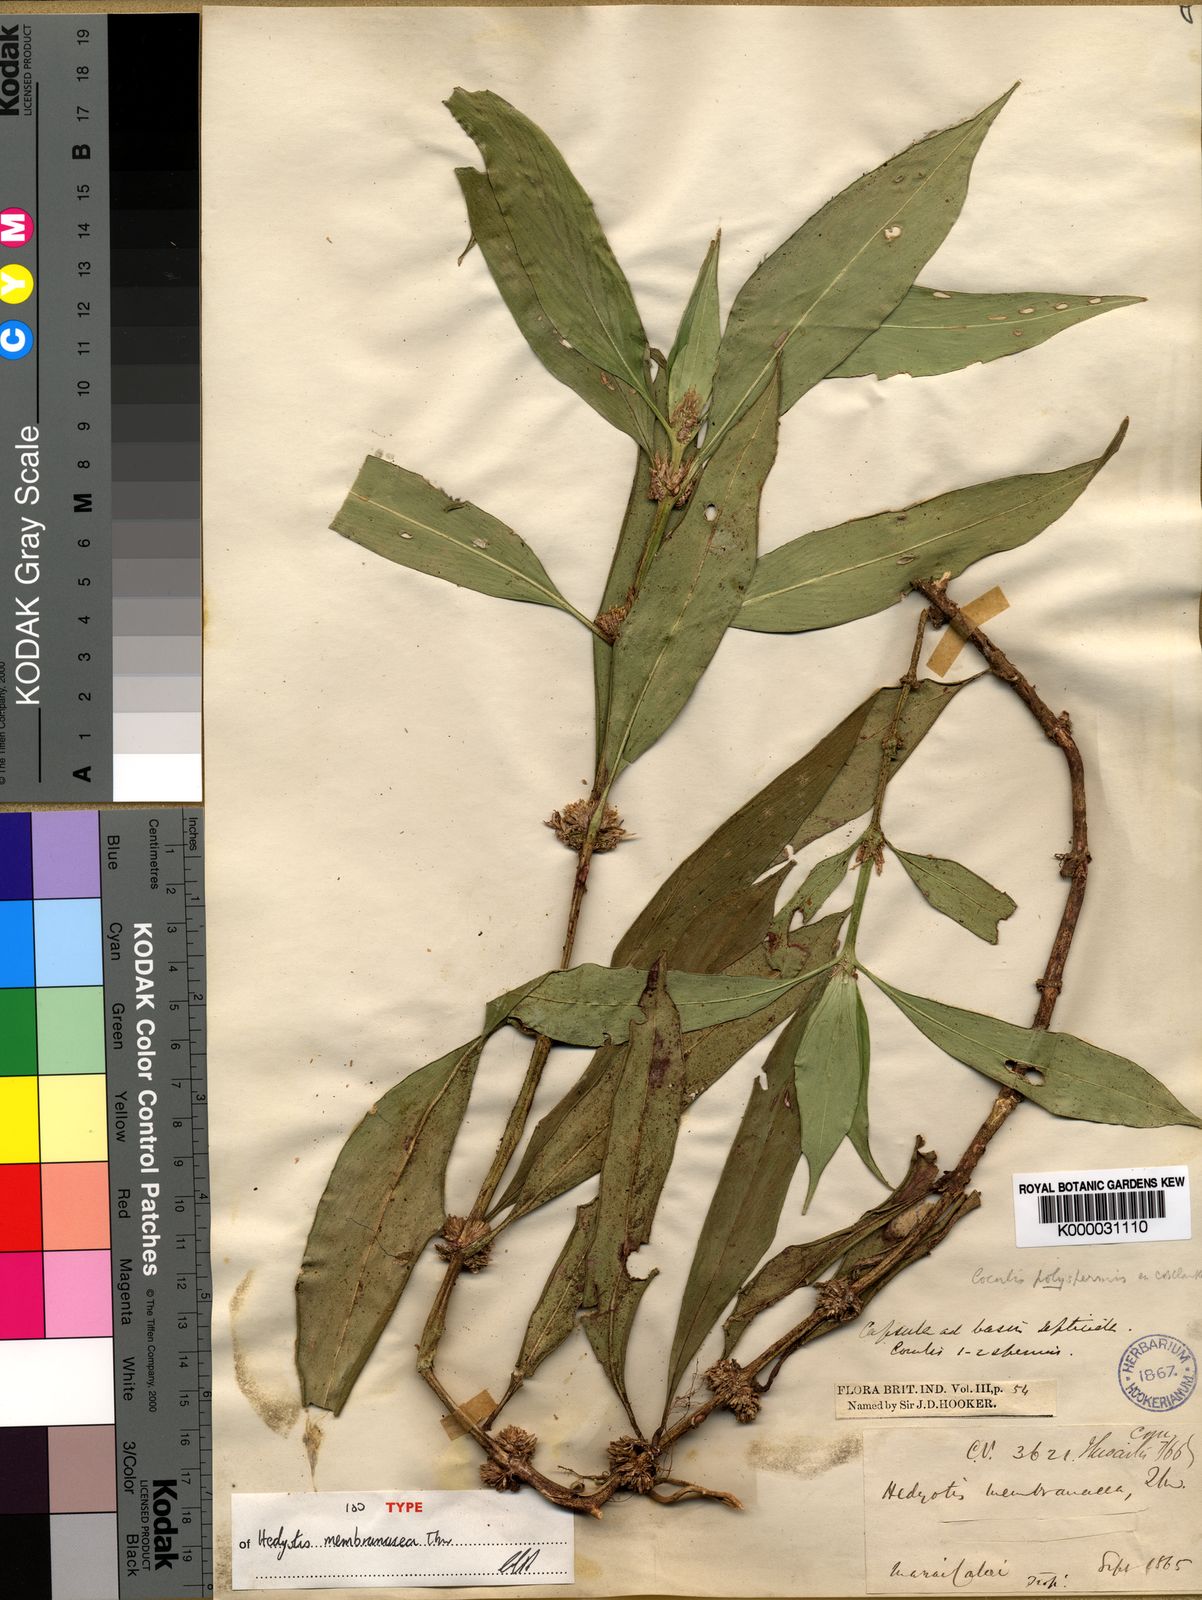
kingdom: Plantae
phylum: Tracheophyta
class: Magnoliopsida
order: Gentianales
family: Rubiaceae
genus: Hedyotis
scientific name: Hedyotis membranacea
